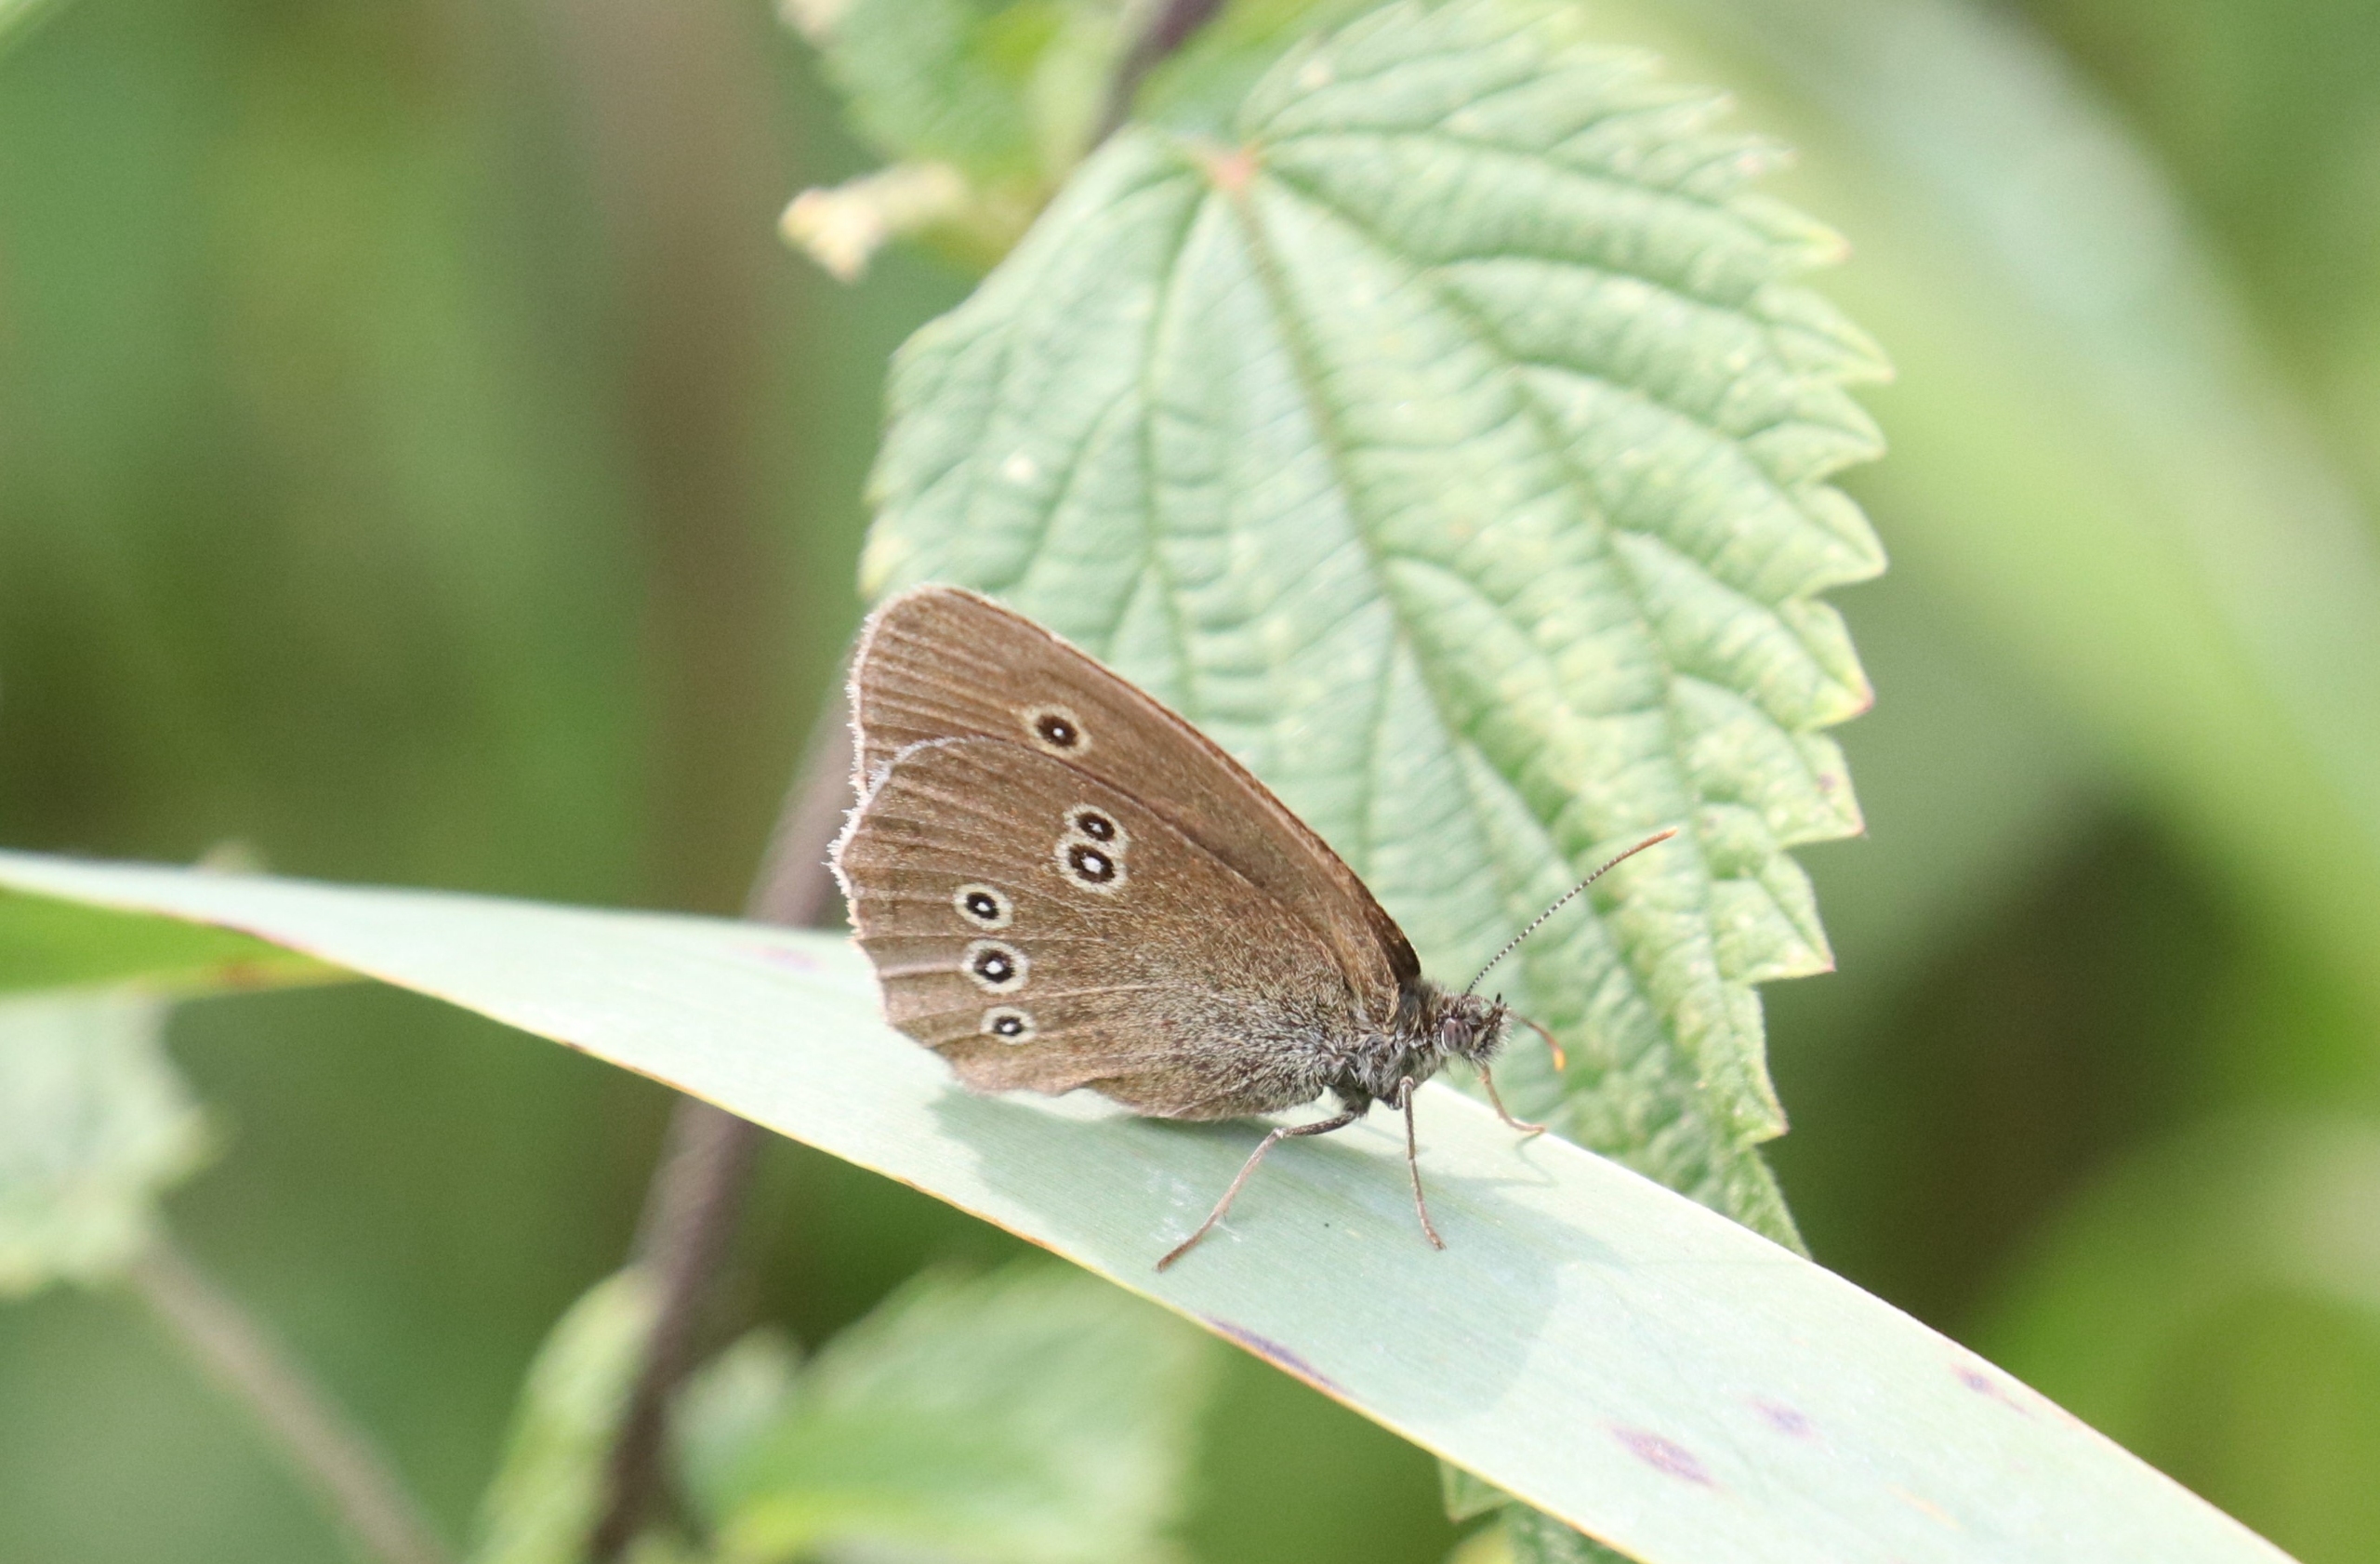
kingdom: Animalia
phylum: Arthropoda
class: Insecta
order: Lepidoptera
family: Nymphalidae
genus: Aphantopus
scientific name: Aphantopus hyperantus
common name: Engrandøje
